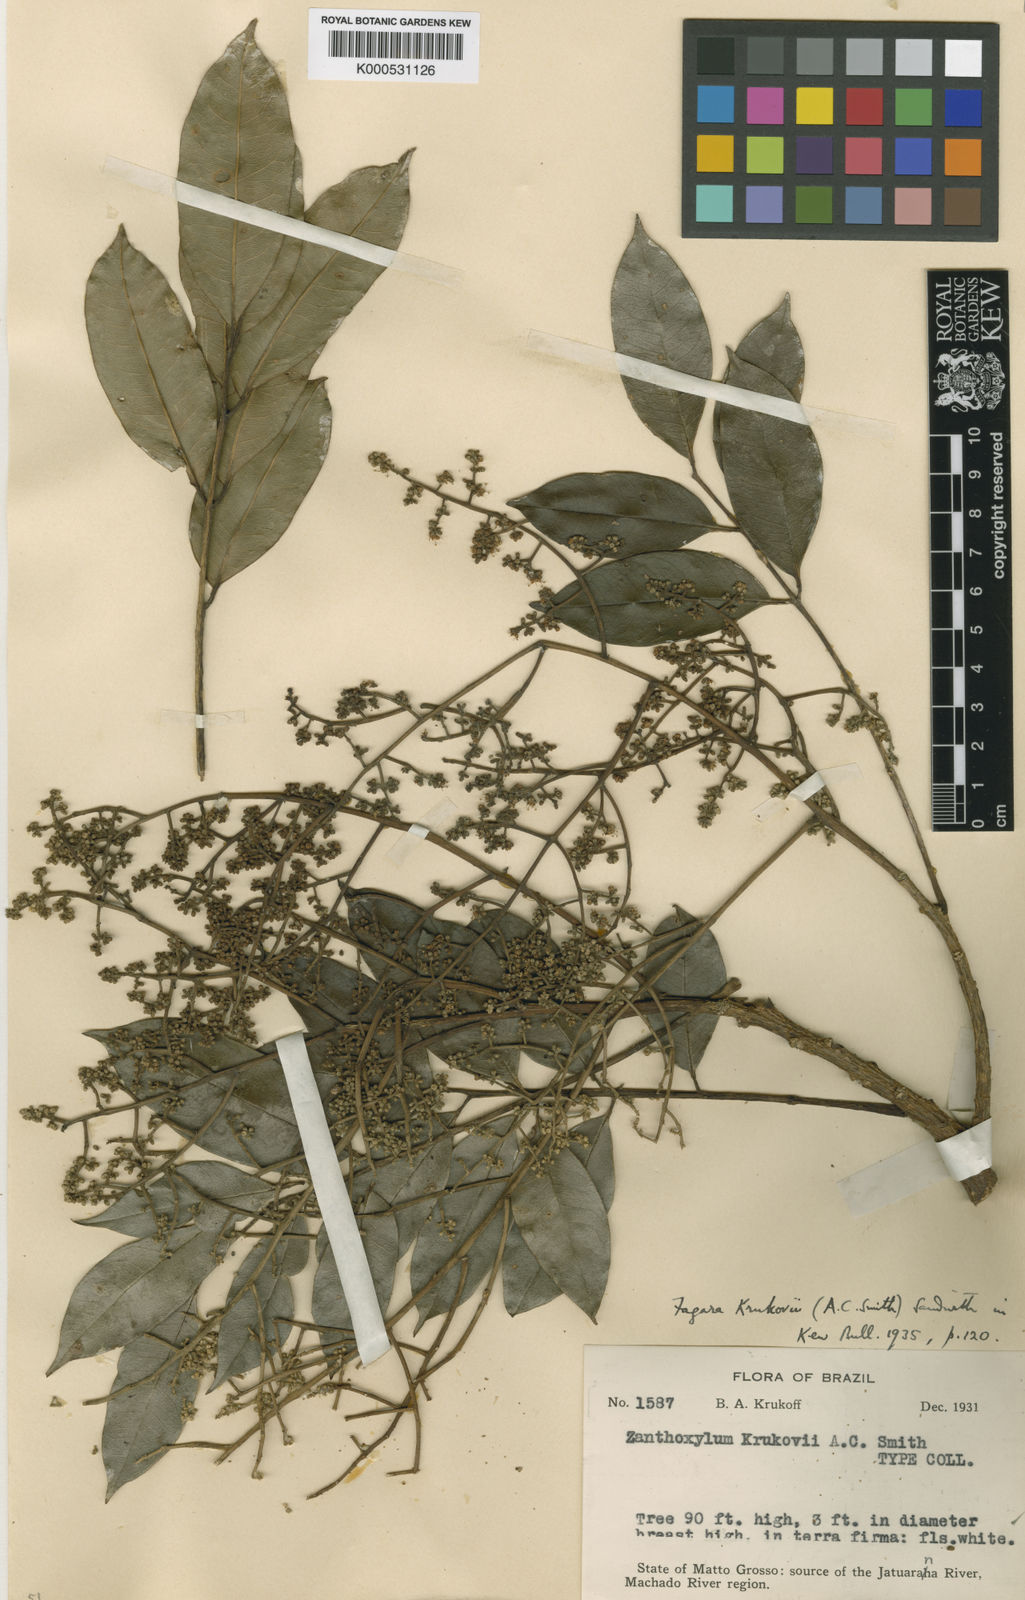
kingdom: Plantae
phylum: Tracheophyta
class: Magnoliopsida
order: Sapindales
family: Rutaceae
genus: Zanthoxylum
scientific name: Zanthoxylum petiolare
